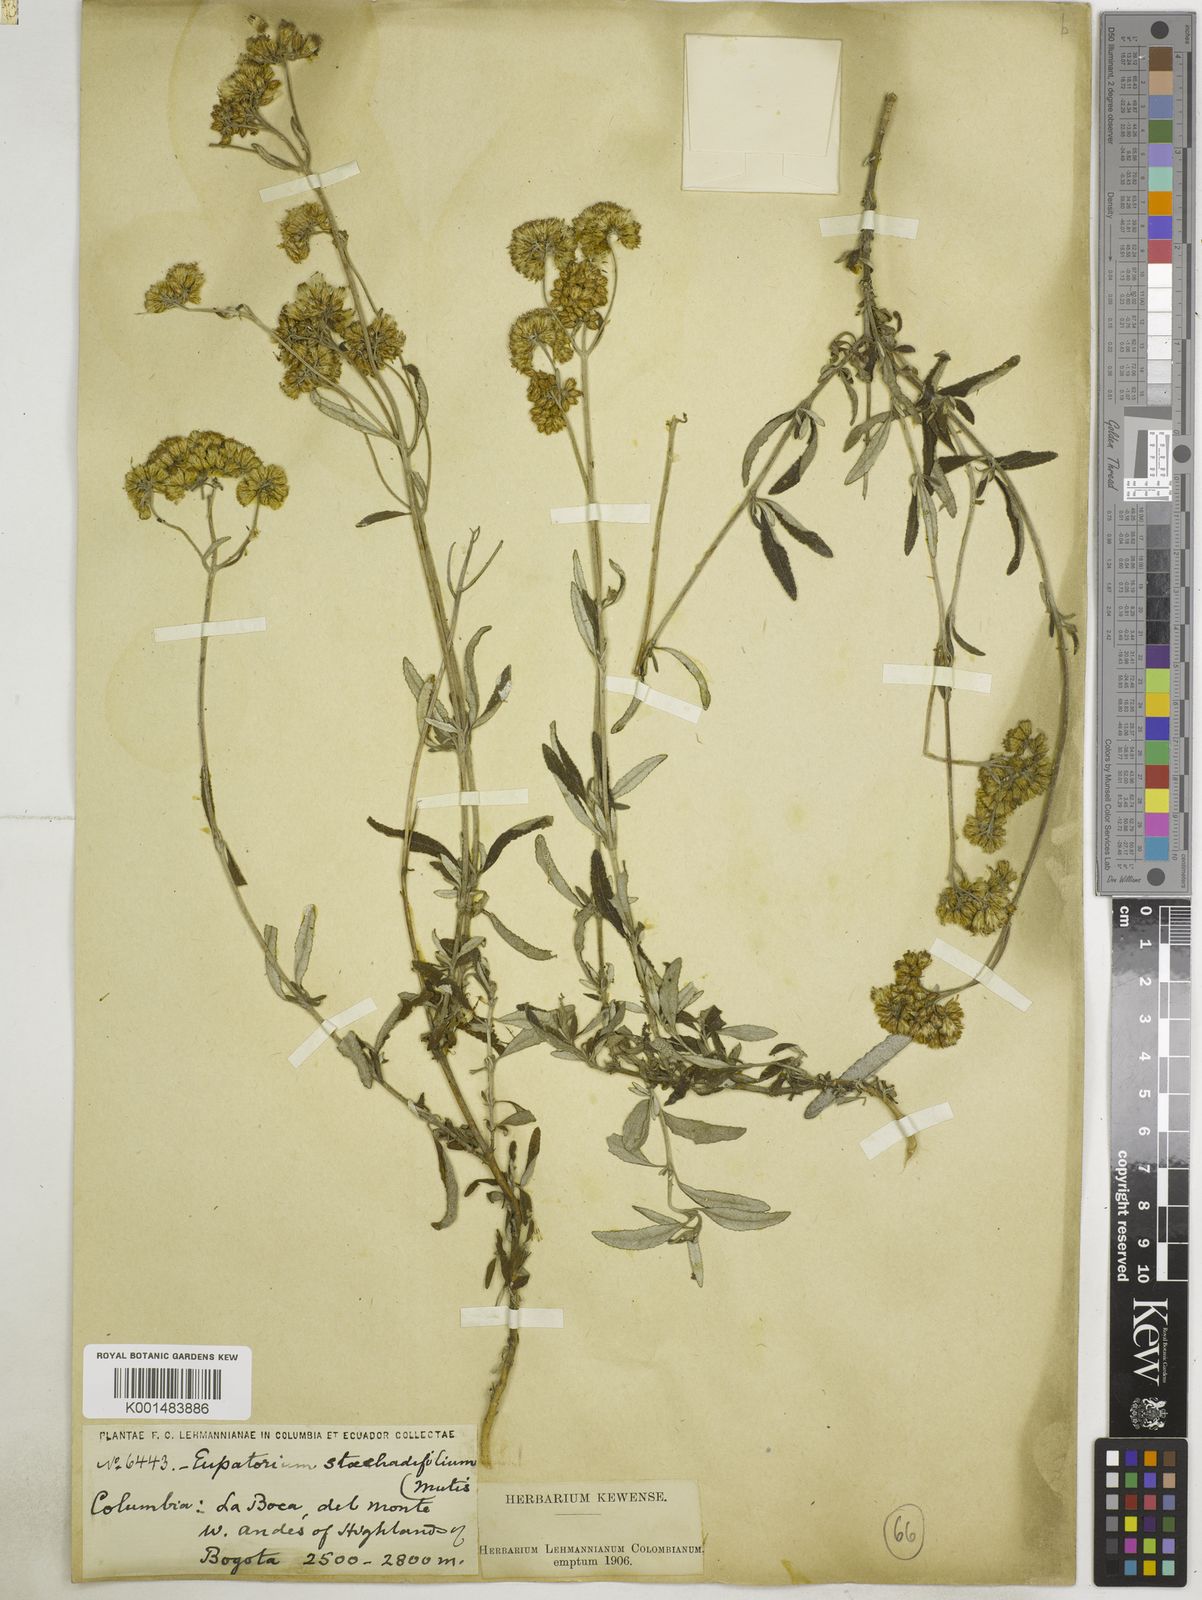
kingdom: Plantae
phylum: Tracheophyta
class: Magnoliopsida
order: Asterales
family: Asteraceae
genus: Lourteigia
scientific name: Lourteigia stoechadifolia
